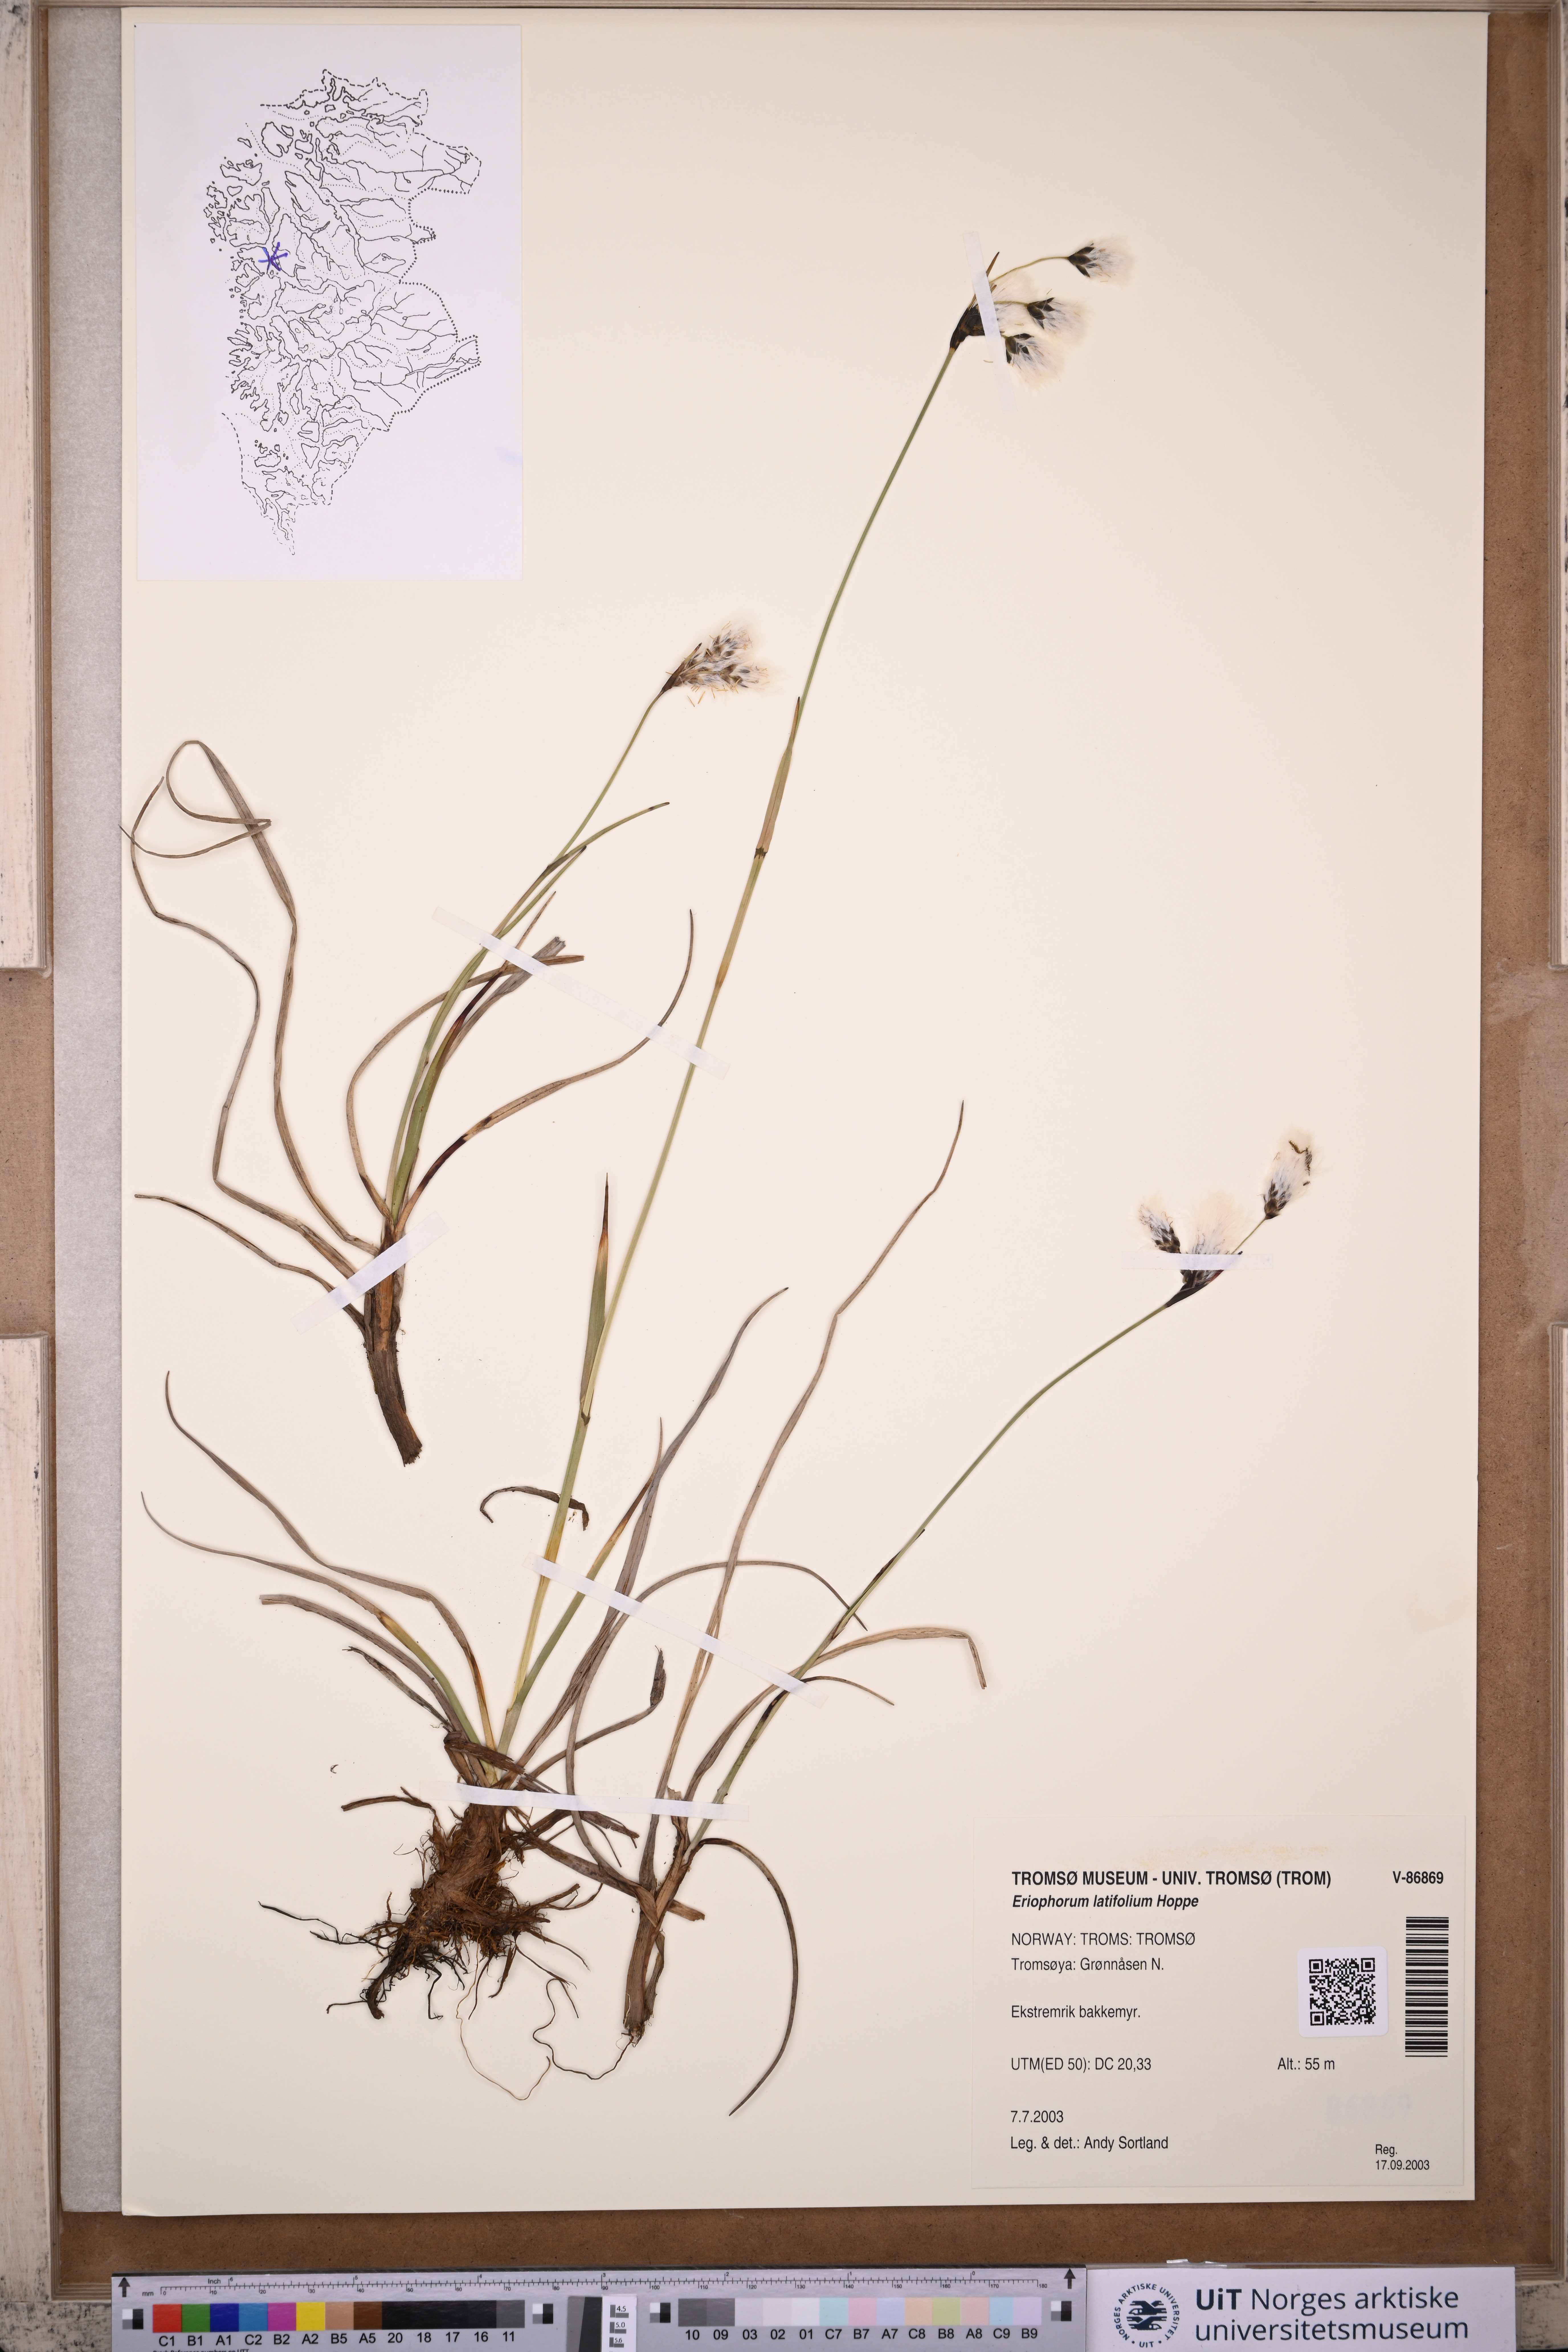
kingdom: Plantae
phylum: Tracheophyta
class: Liliopsida
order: Poales
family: Cyperaceae
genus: Eriophorum
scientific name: Eriophorum latifolium
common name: Broad-leaved cottongrass
